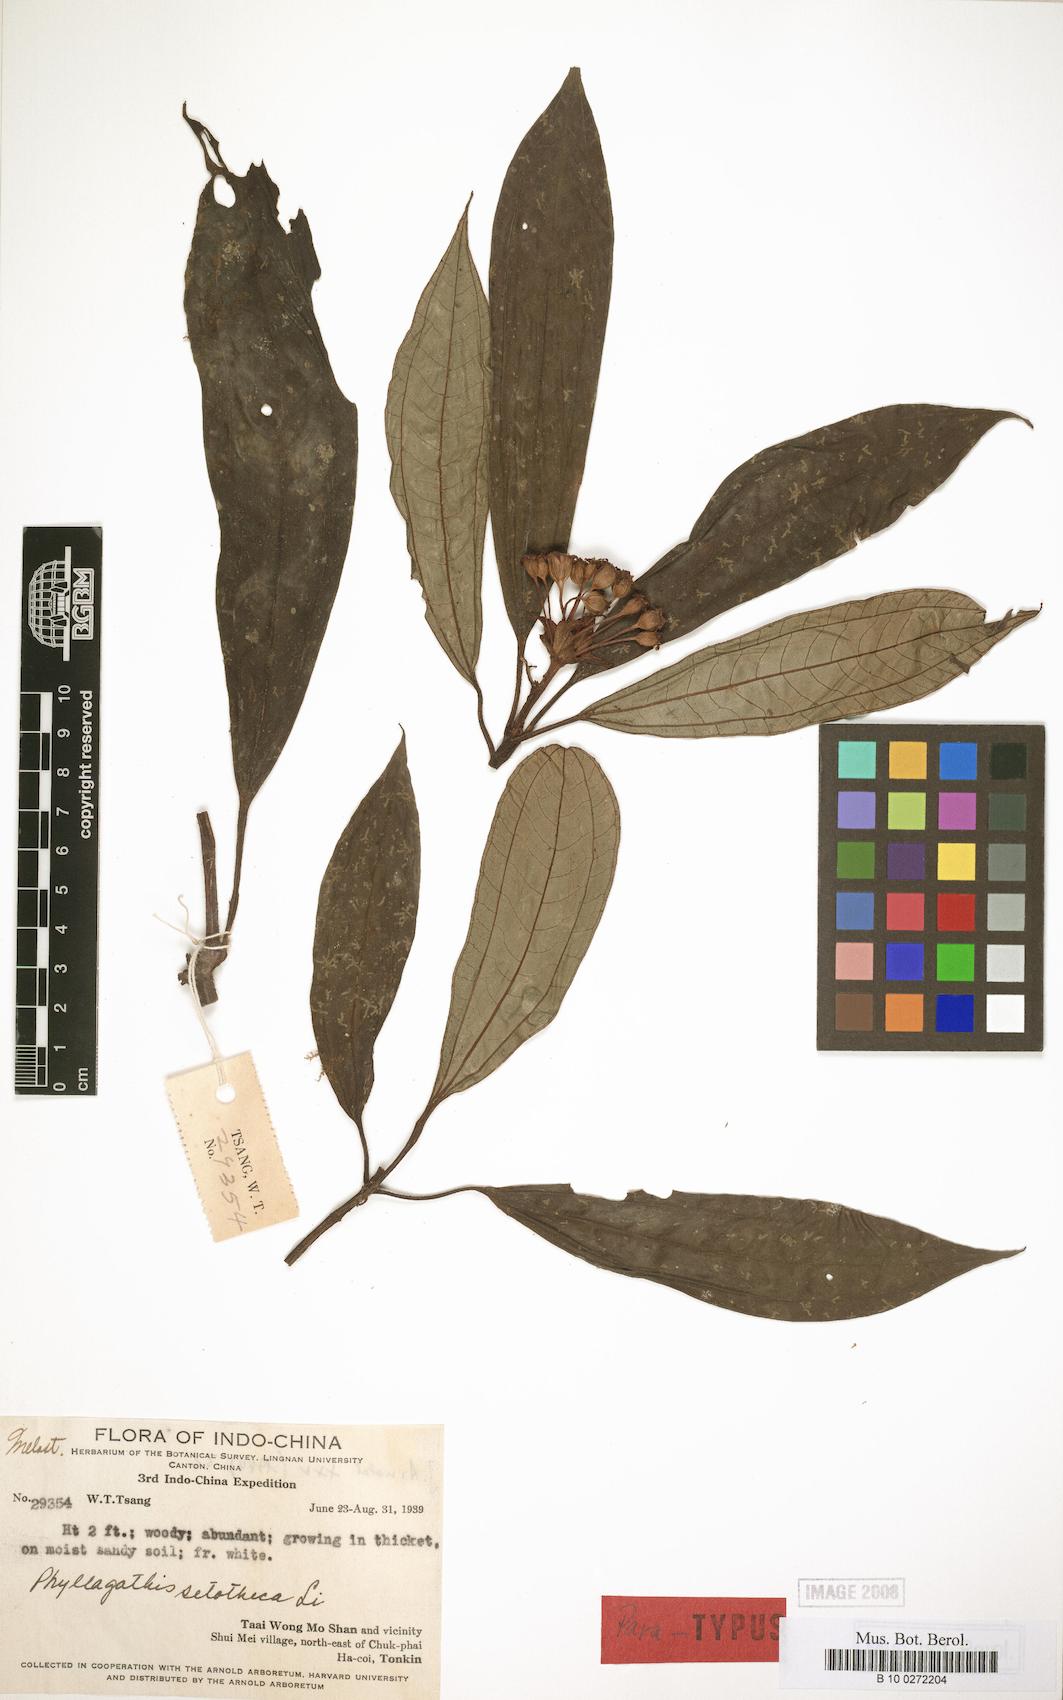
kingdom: Plantae
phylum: Tracheophyta
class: Magnoliopsida
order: Myrtales
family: Melastomataceae
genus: Phyllagathis
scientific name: Phyllagathis setotheca
